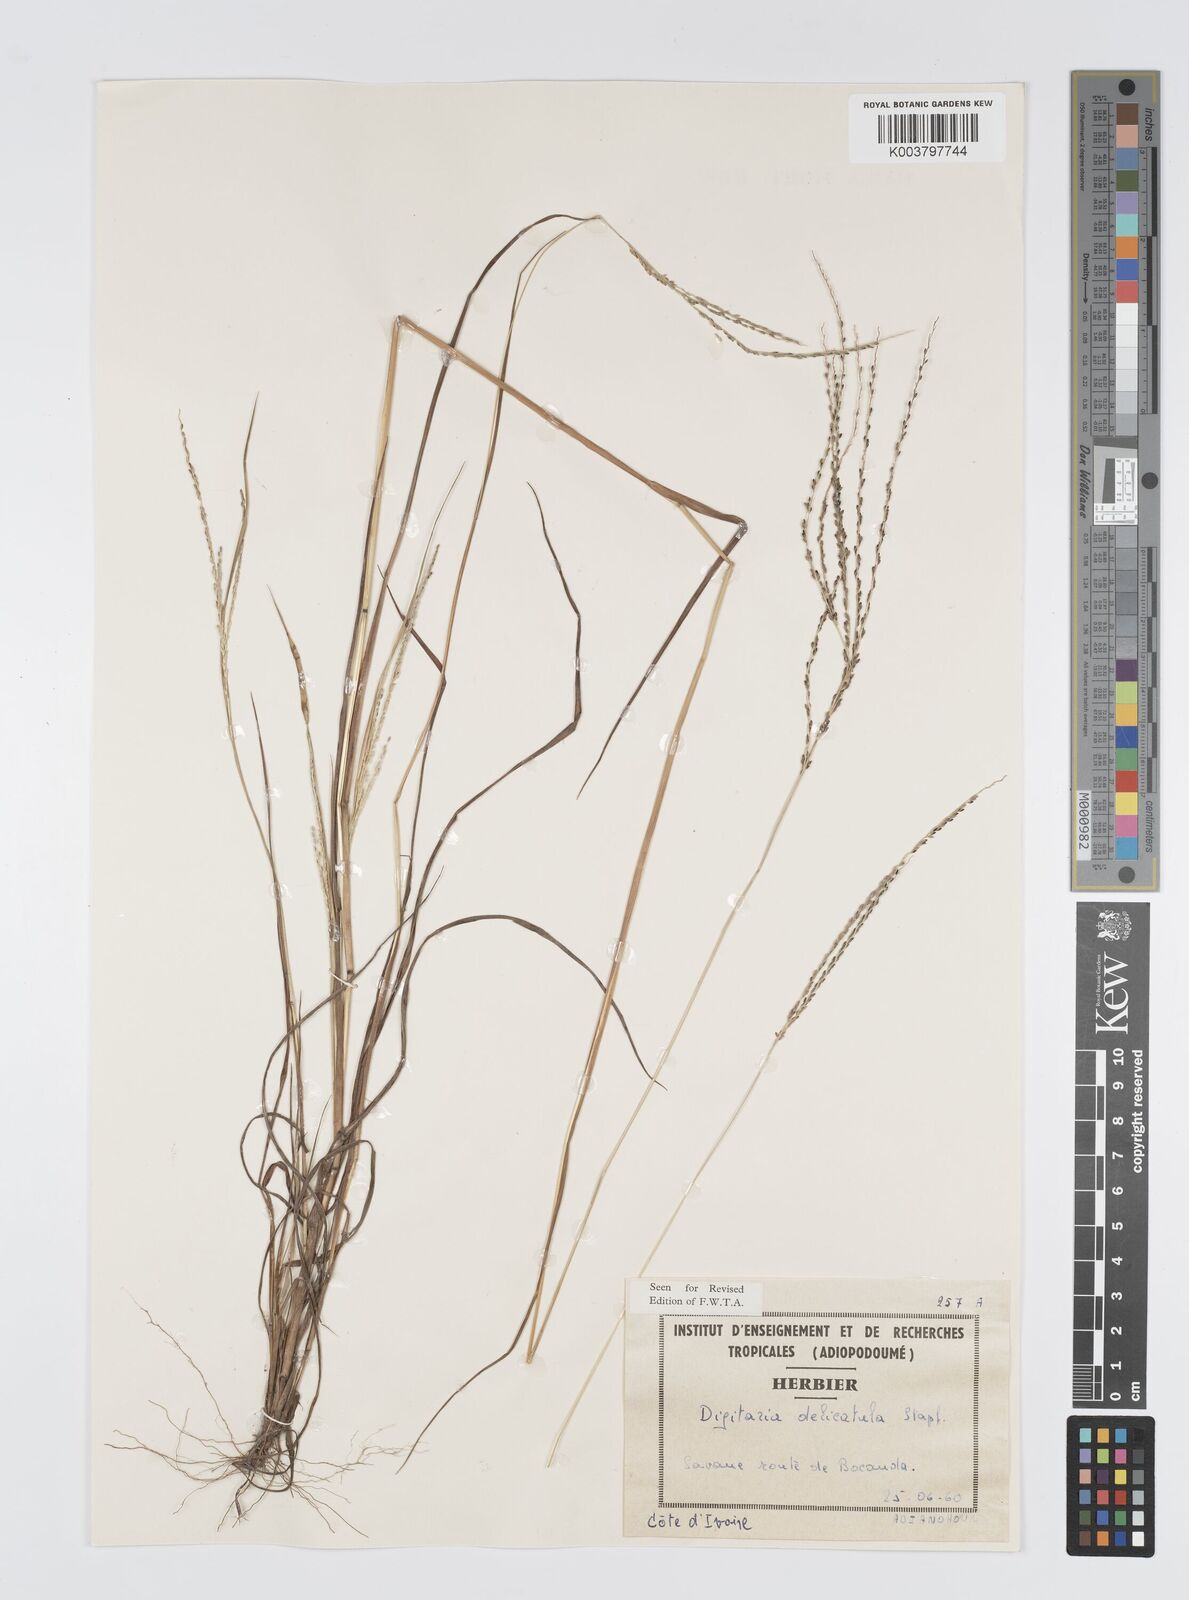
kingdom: Plantae
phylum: Tracheophyta
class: Liliopsida
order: Poales
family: Poaceae
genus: Digitaria
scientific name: Digitaria delicatula
